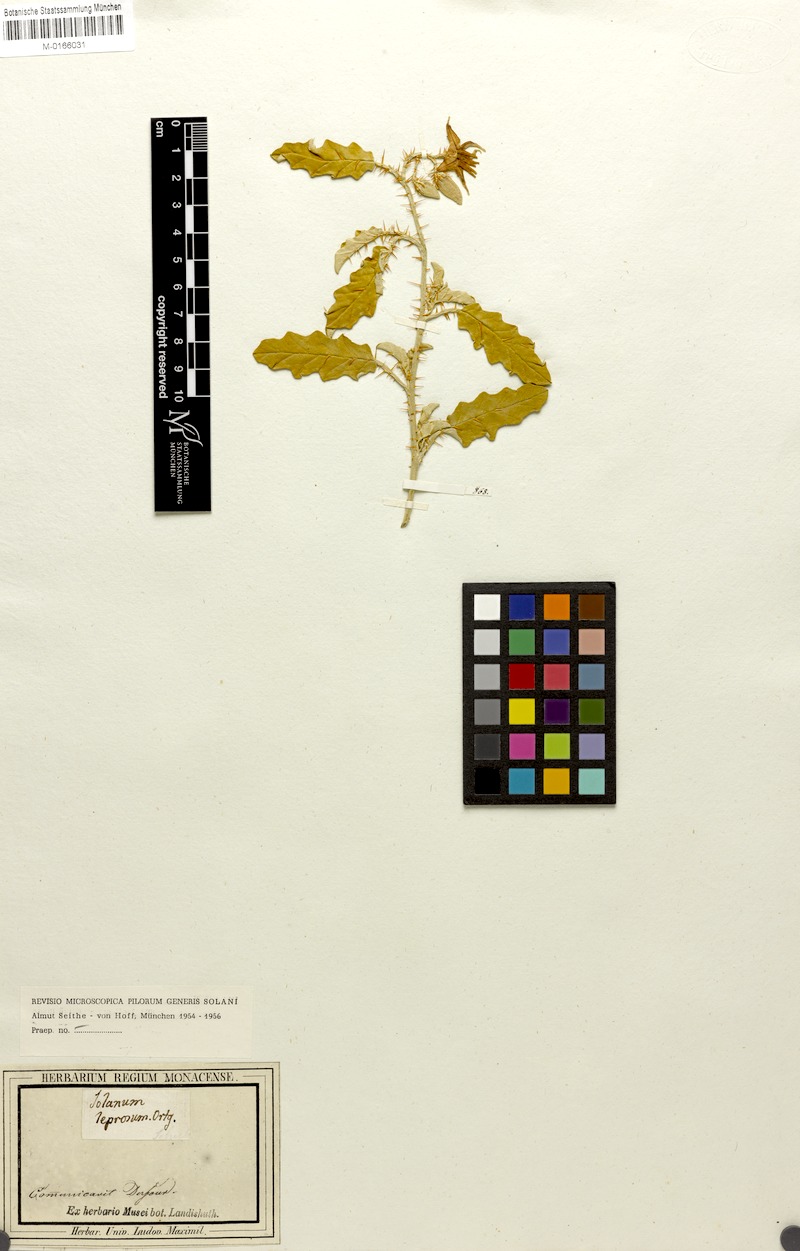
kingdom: Plantae
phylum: Tracheophyta
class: Magnoliopsida
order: Solanales
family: Solanaceae
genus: Solanum
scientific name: Solanum elaeagnifolium
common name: Silverleaf nightshade
